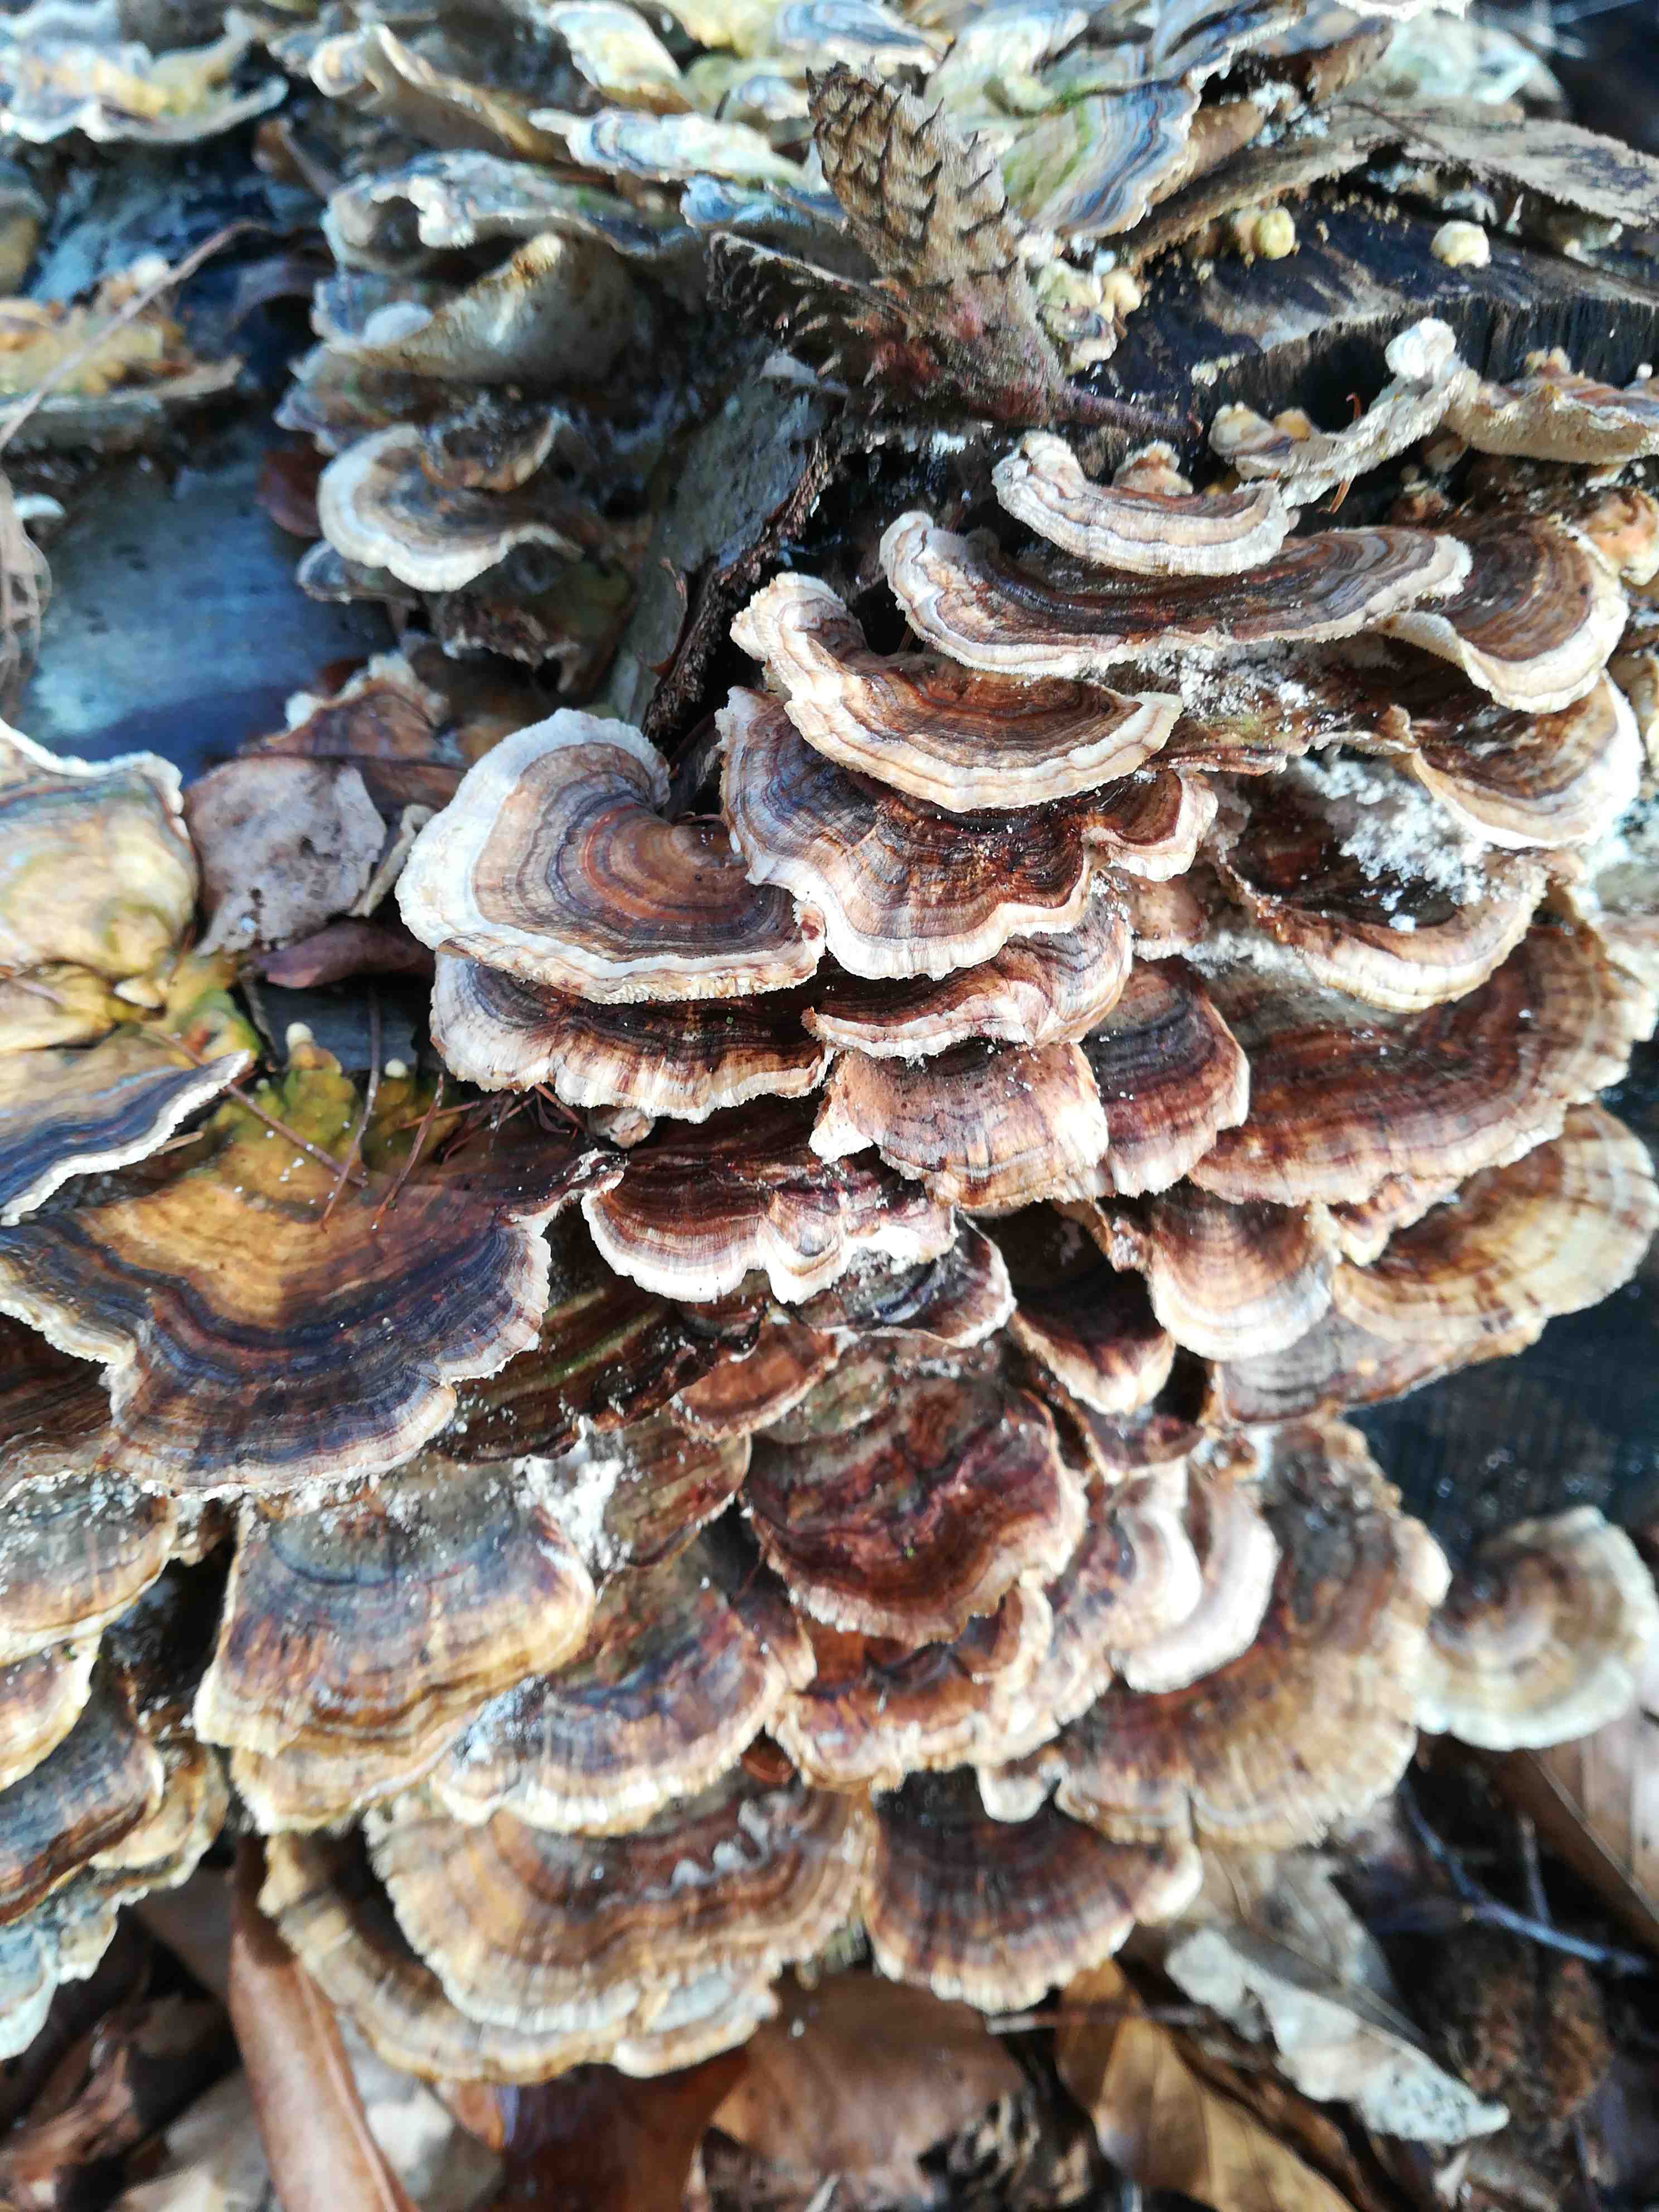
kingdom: Fungi
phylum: Basidiomycota
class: Agaricomycetes
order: Polyporales
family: Polyporaceae
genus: Trametes
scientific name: Trametes versicolor
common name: broget læderporesvamp
